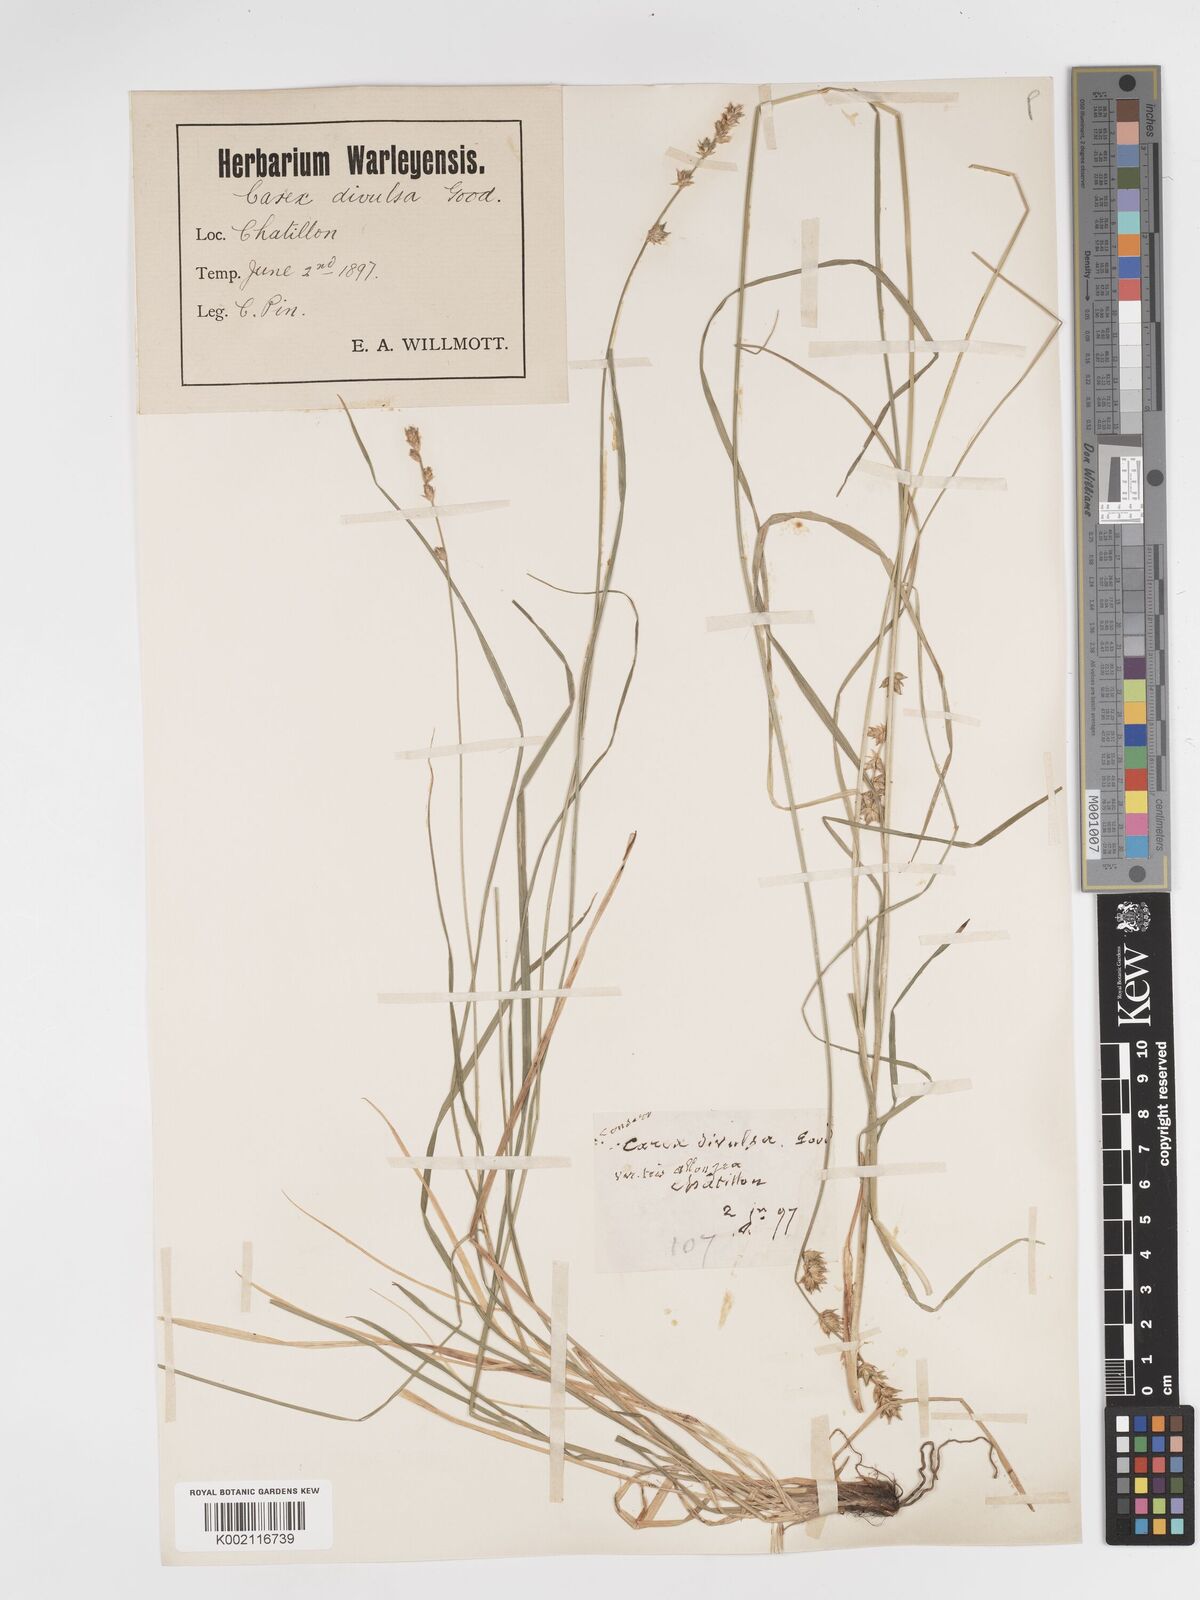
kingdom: Plantae
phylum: Tracheophyta
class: Liliopsida
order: Poales
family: Cyperaceae
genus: Carex
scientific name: Carex divulsa
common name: Grassland sedge
